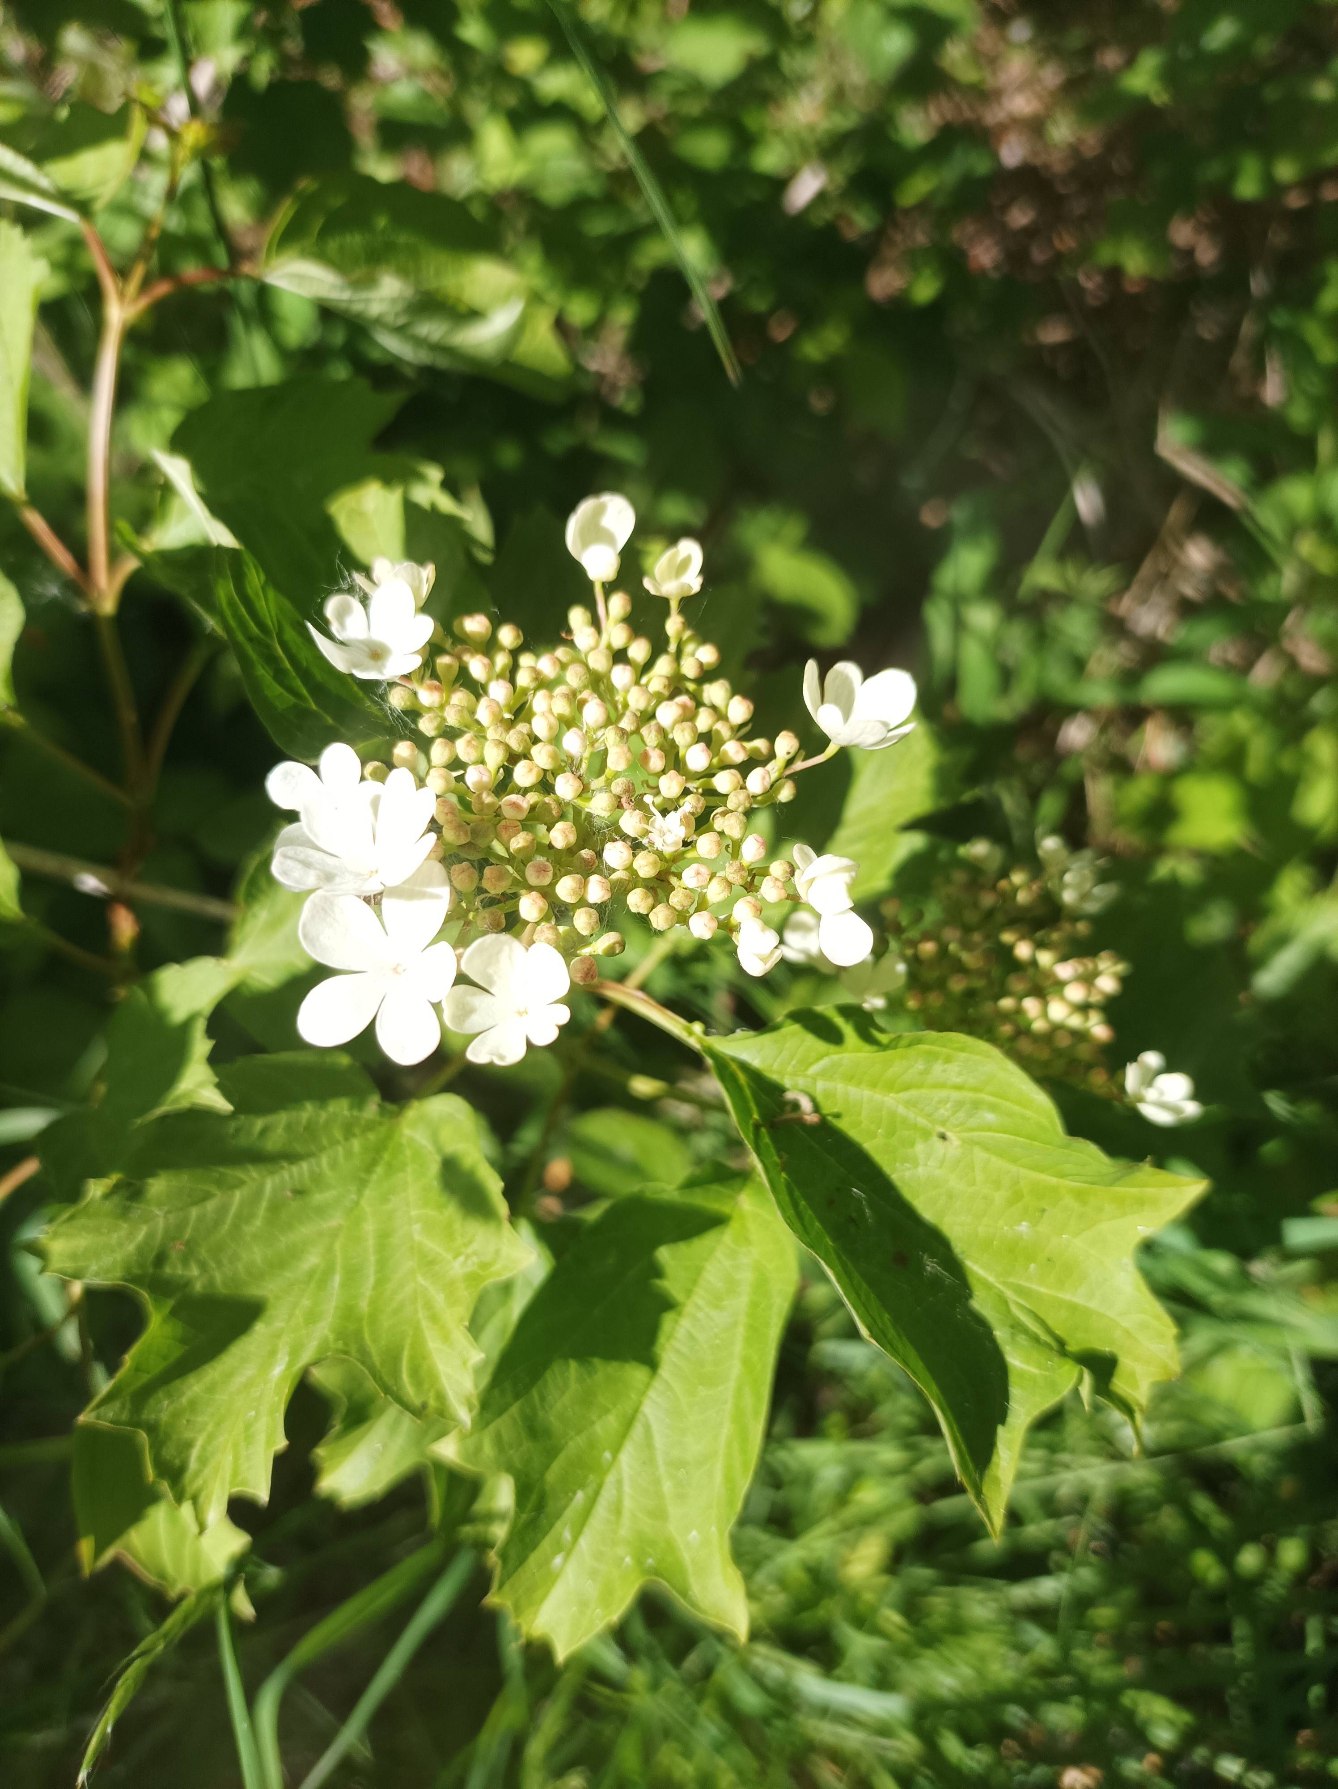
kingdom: Plantae
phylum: Tracheophyta
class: Magnoliopsida
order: Dipsacales
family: Viburnaceae
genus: Viburnum
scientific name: Viburnum opulus
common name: Kvalkved
